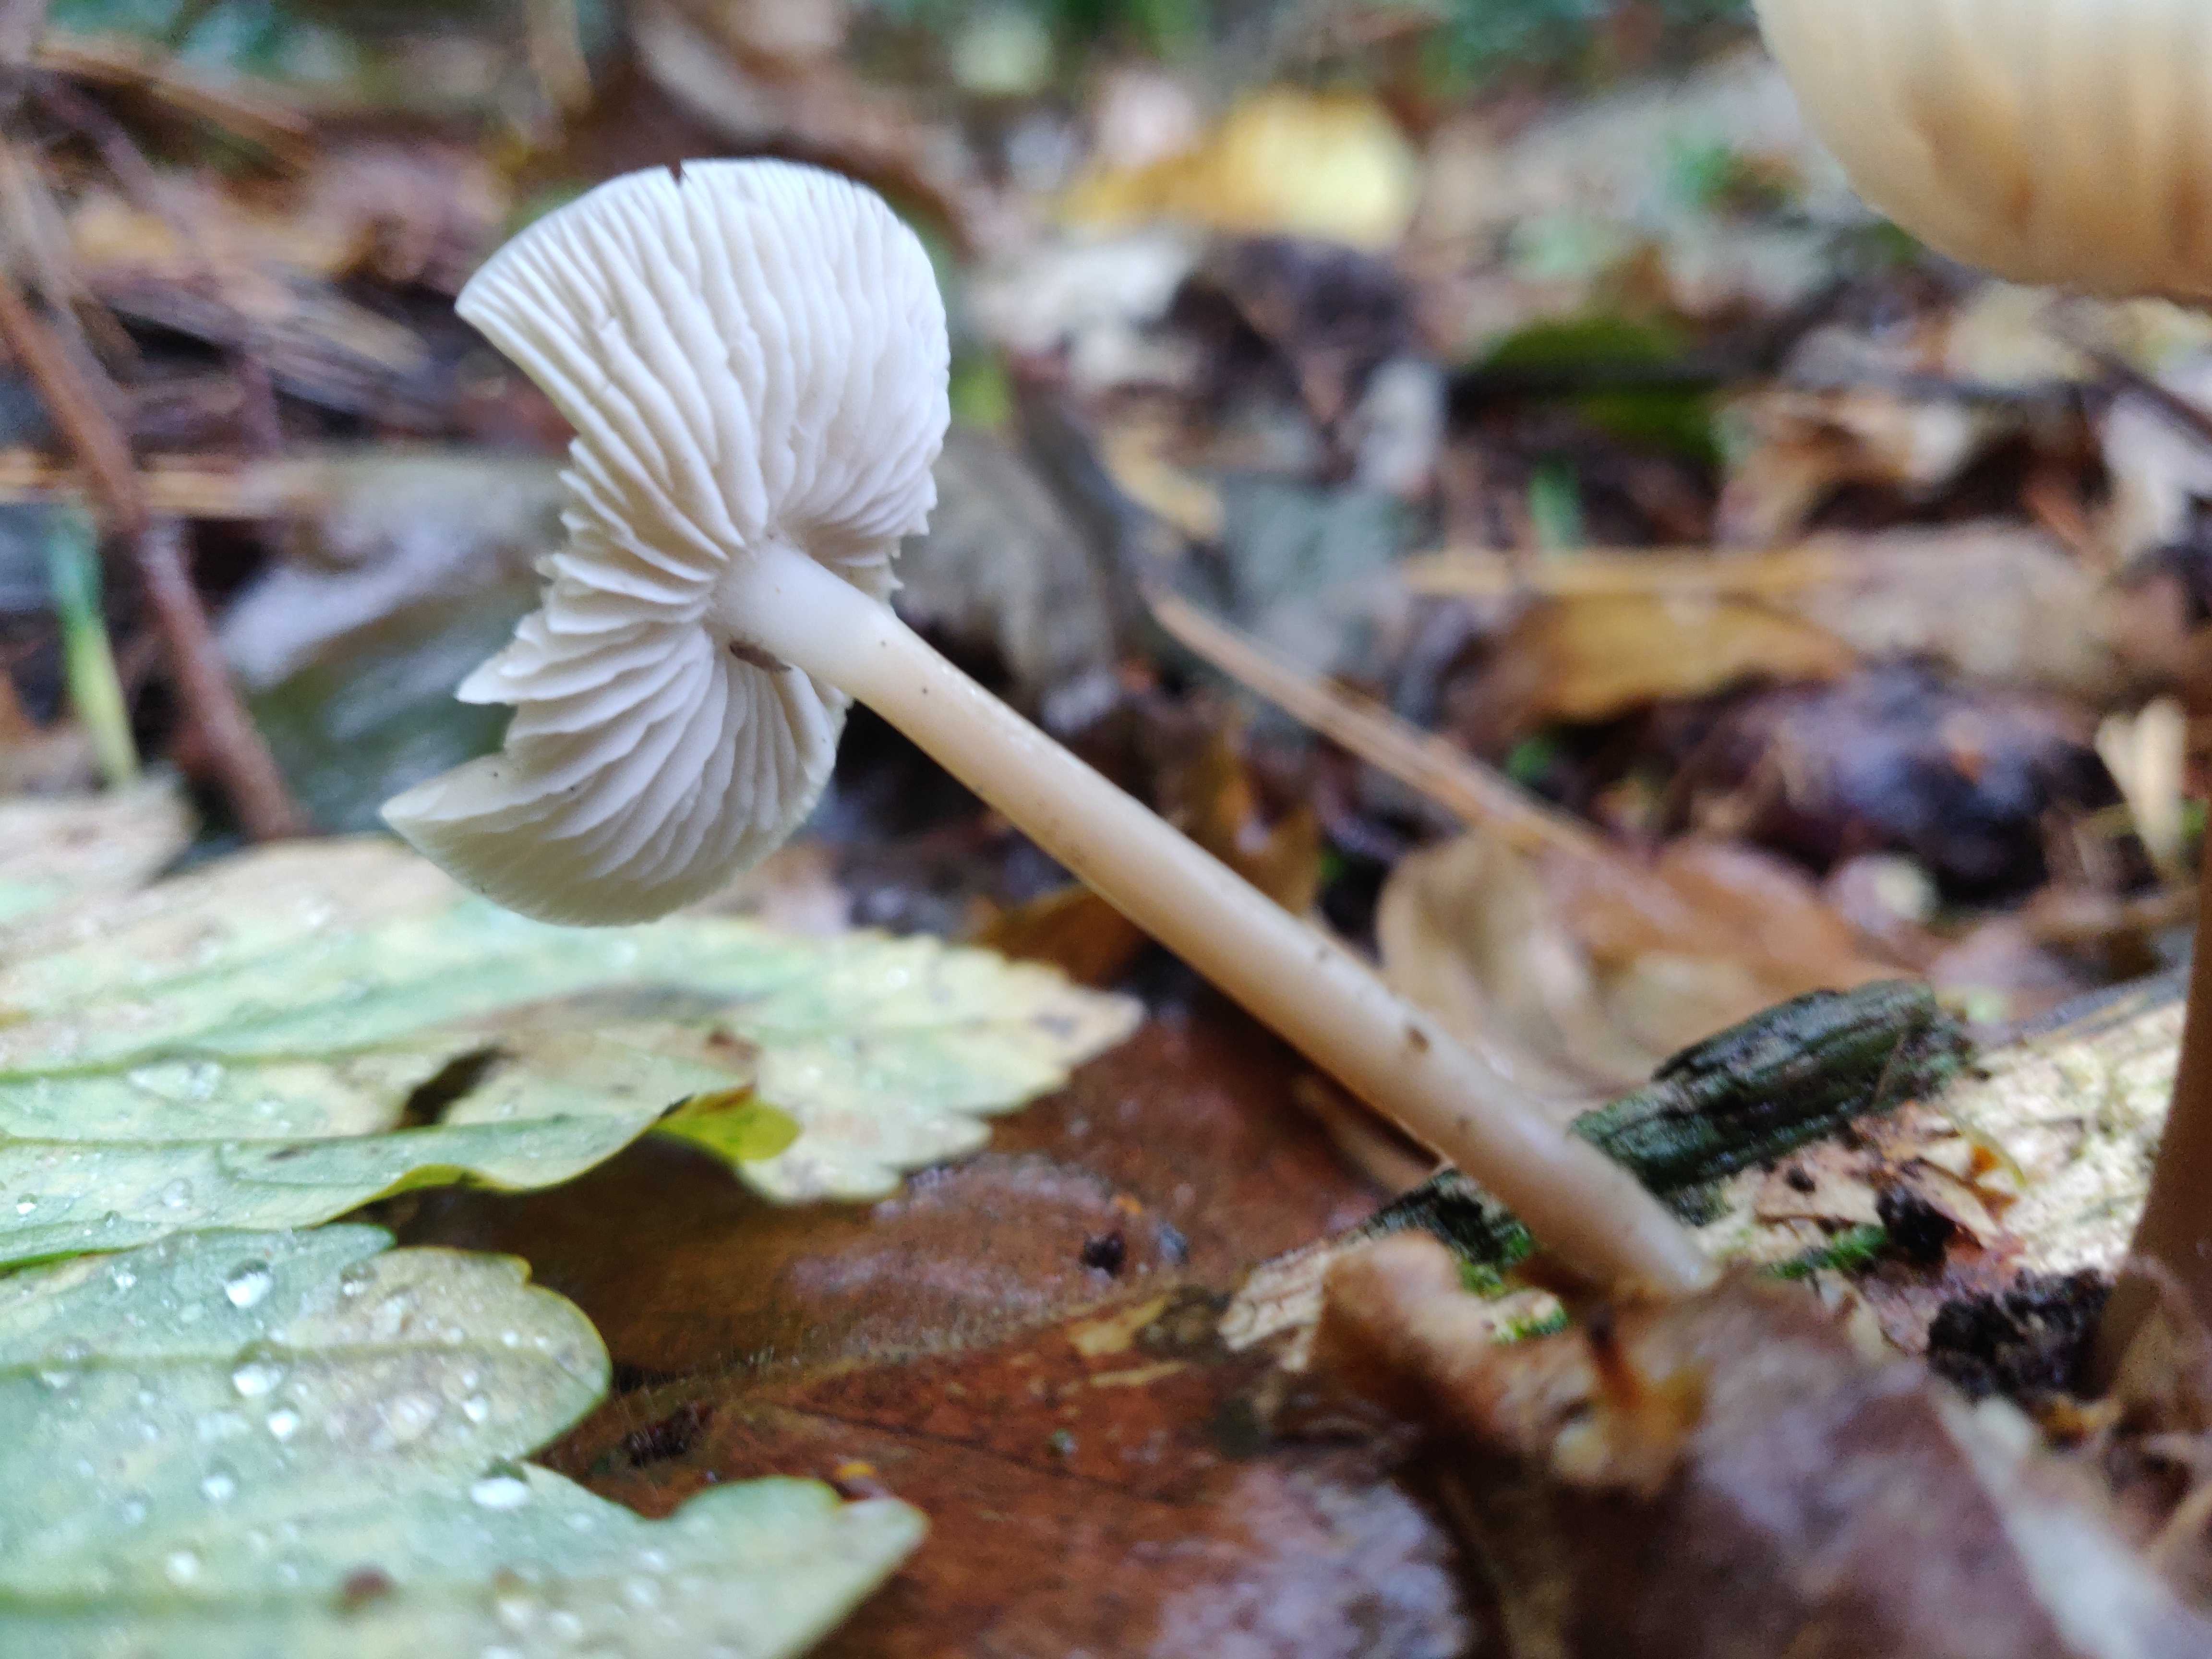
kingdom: Fungi
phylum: Basidiomycota
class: Agaricomycetes
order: Agaricales
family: Mycenaceae
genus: Mycena
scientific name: Mycena galericulata
